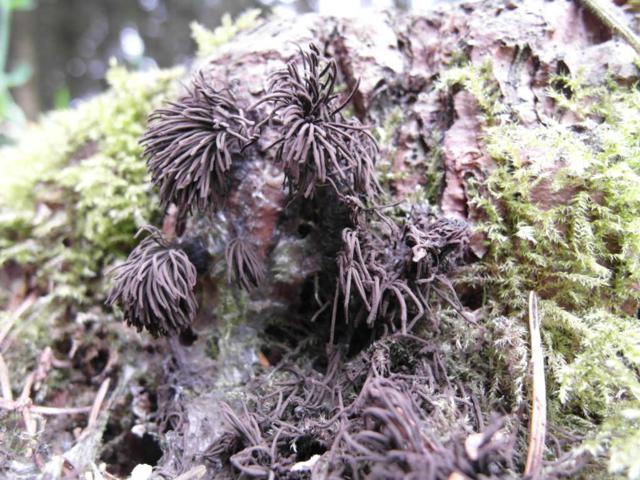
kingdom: Protozoa
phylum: Mycetozoa
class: Myxomycetes
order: Stemonitidales
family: Stemonitidaceae
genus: Stemonitis
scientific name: Stemonitis fusca
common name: sodbrun støvkølle
